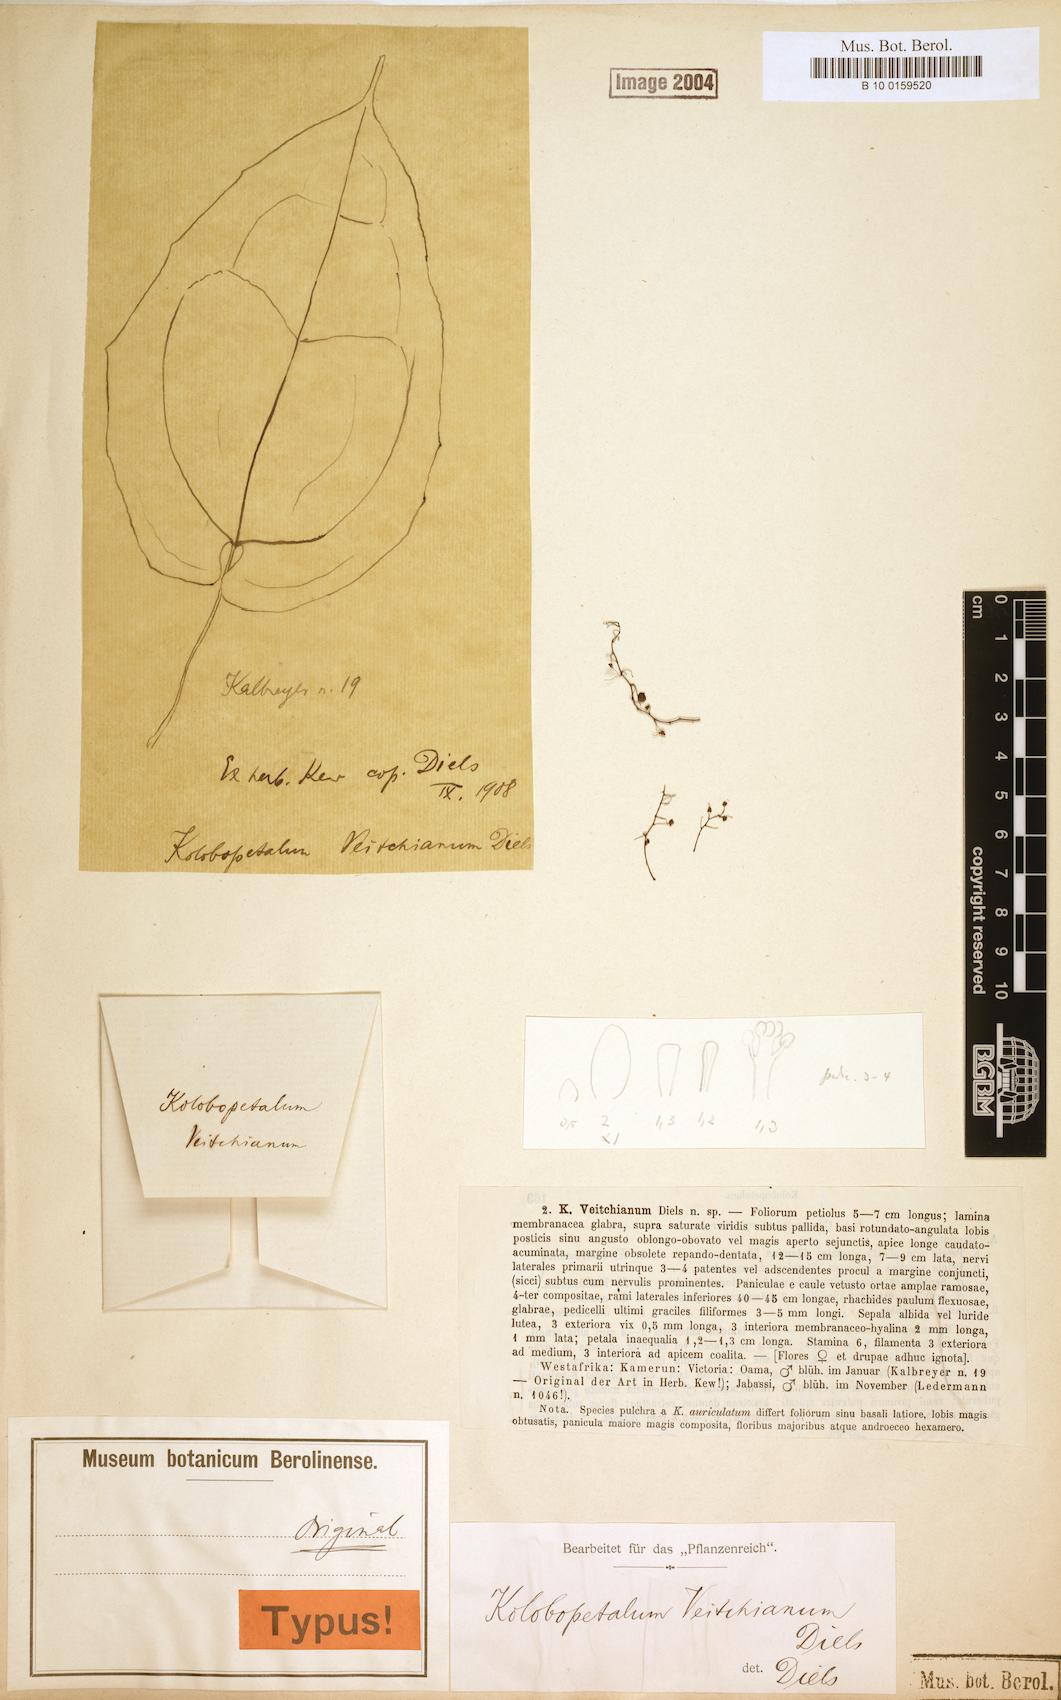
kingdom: Plantae
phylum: Tracheophyta
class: Magnoliopsida
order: Ranunculales
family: Menispermaceae
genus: Kolobopetalum
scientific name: Kolobopetalum auriculatum
